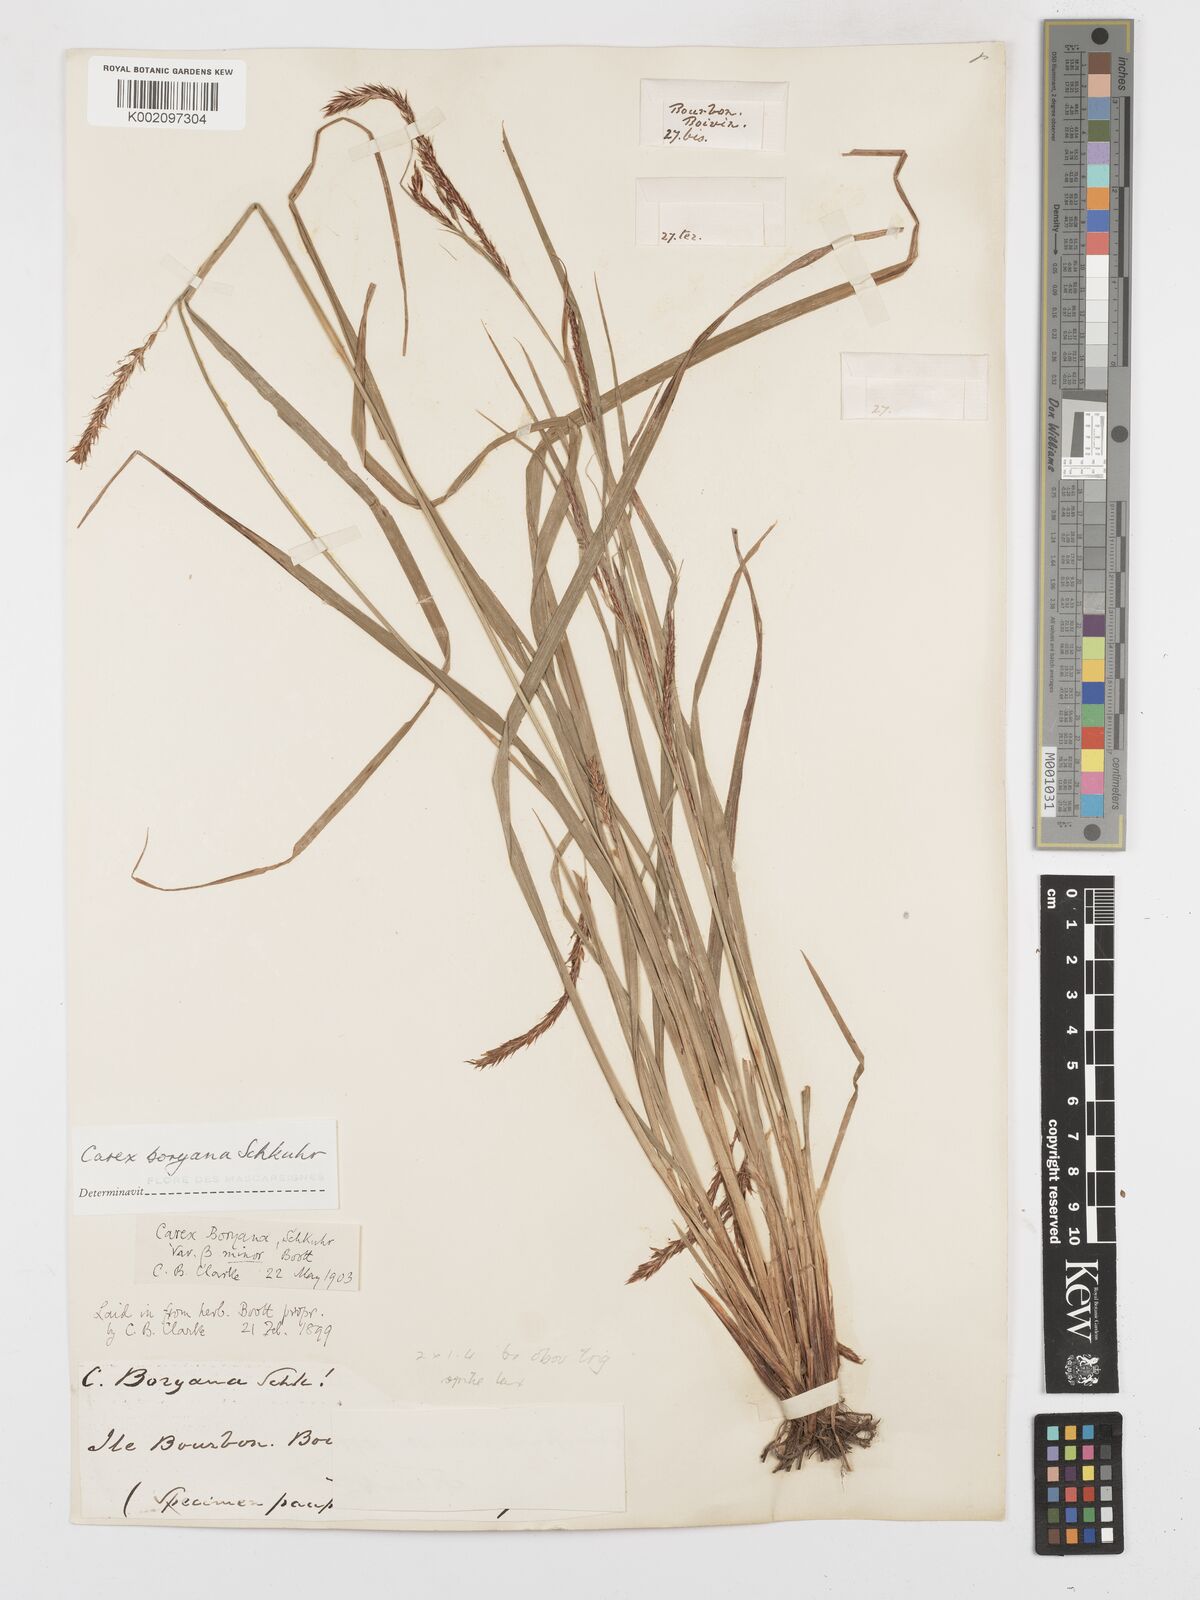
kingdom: Plantae
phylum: Tracheophyta
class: Liliopsida
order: Poales
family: Cyperaceae
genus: Carex
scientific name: Carex boryana
